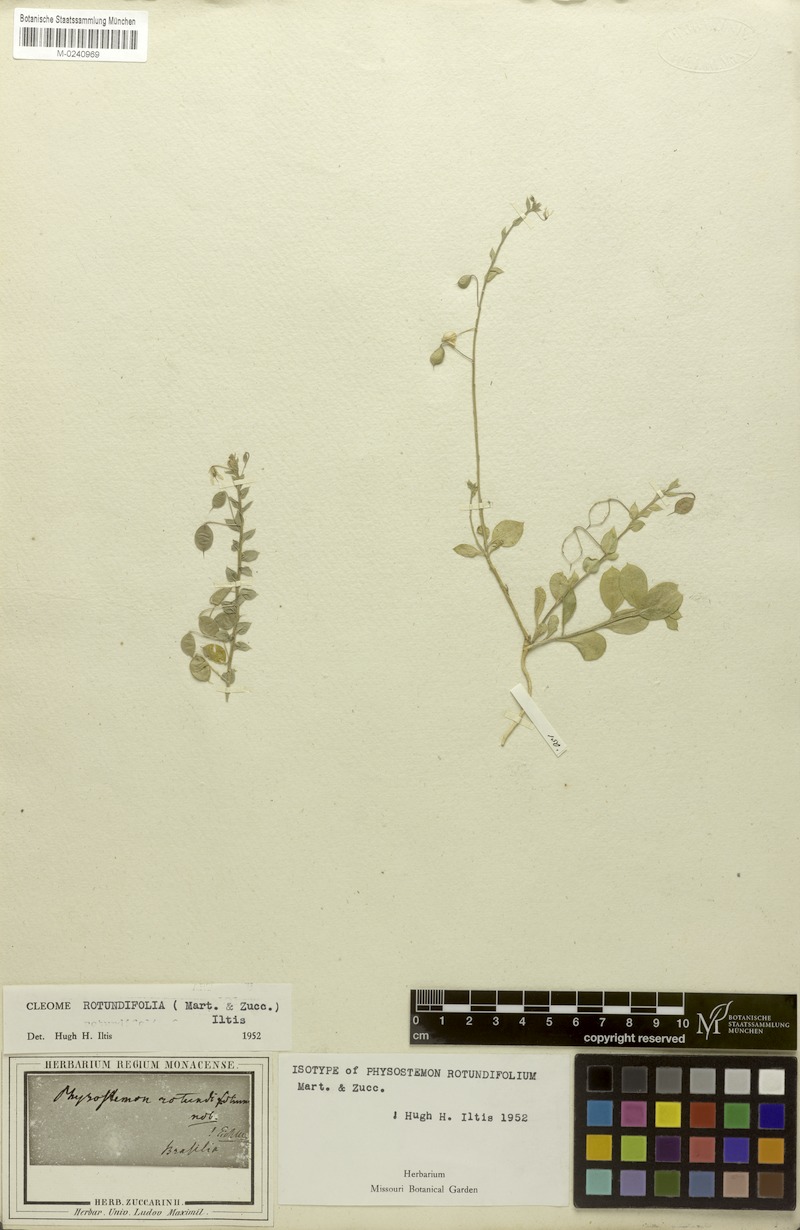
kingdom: Plantae
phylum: Tracheophyta
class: Magnoliopsida
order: Brassicales
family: Cleomaceae
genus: Physostemon
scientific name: Physostemon rotundifolius
